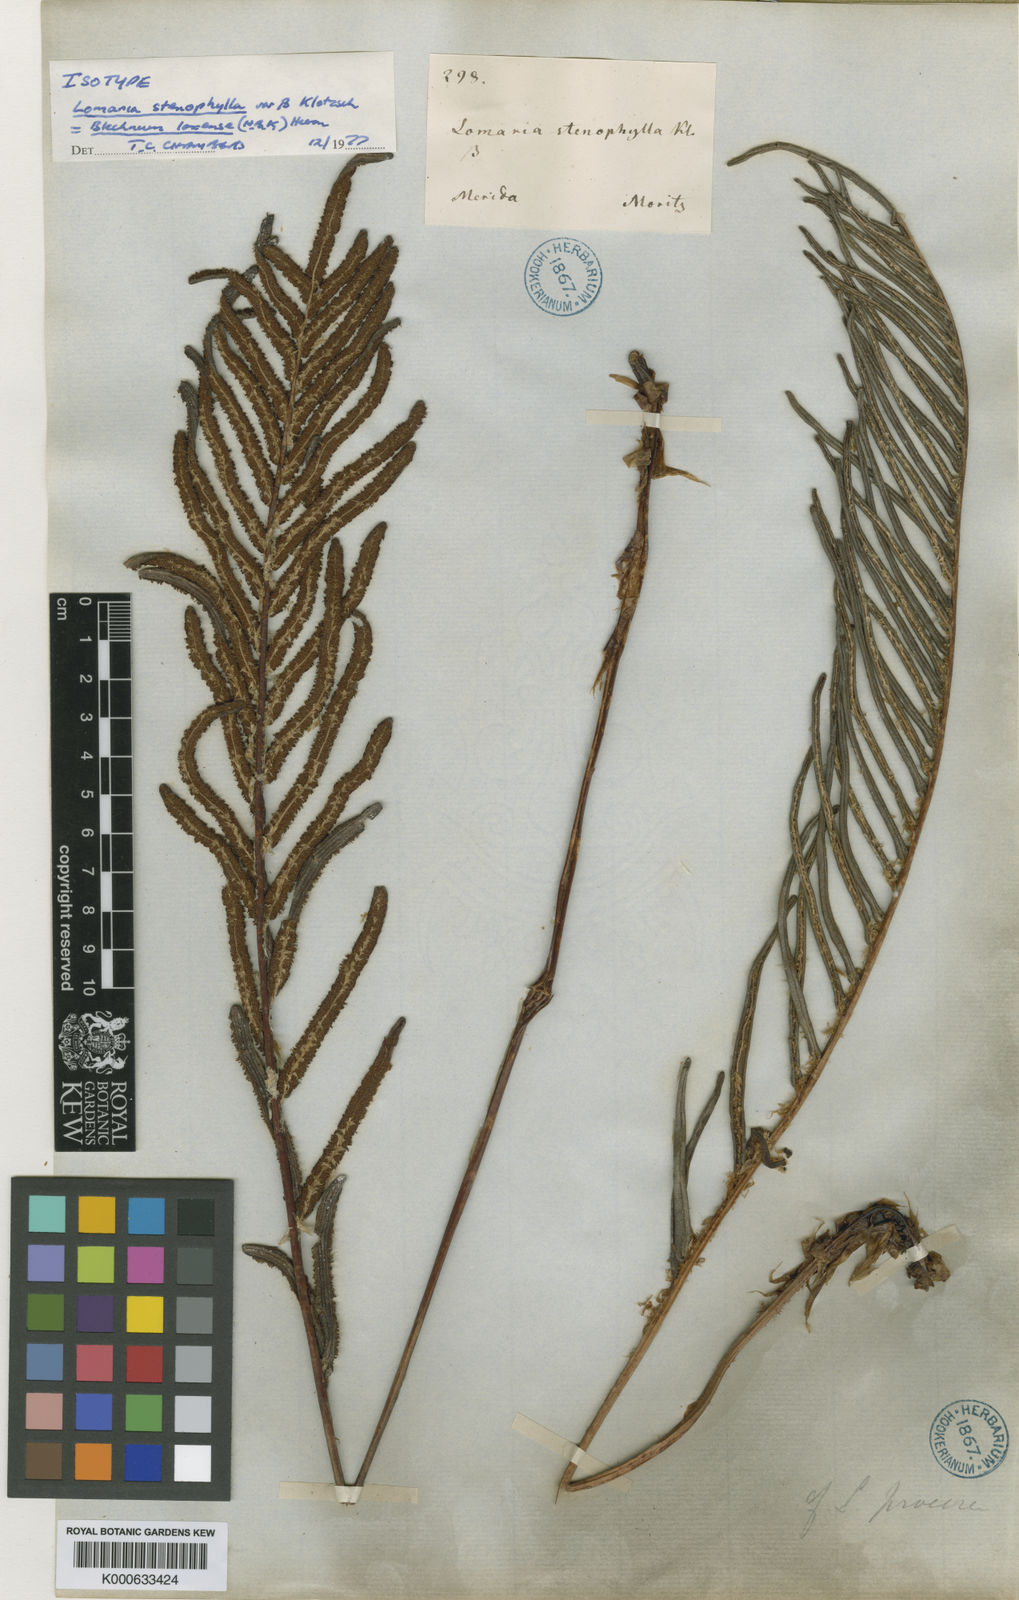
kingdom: Plantae
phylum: Tracheophyta
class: Polypodiopsida
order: Polypodiales
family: Blechnaceae
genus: Parablechnum
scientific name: Parablechnum loxense
